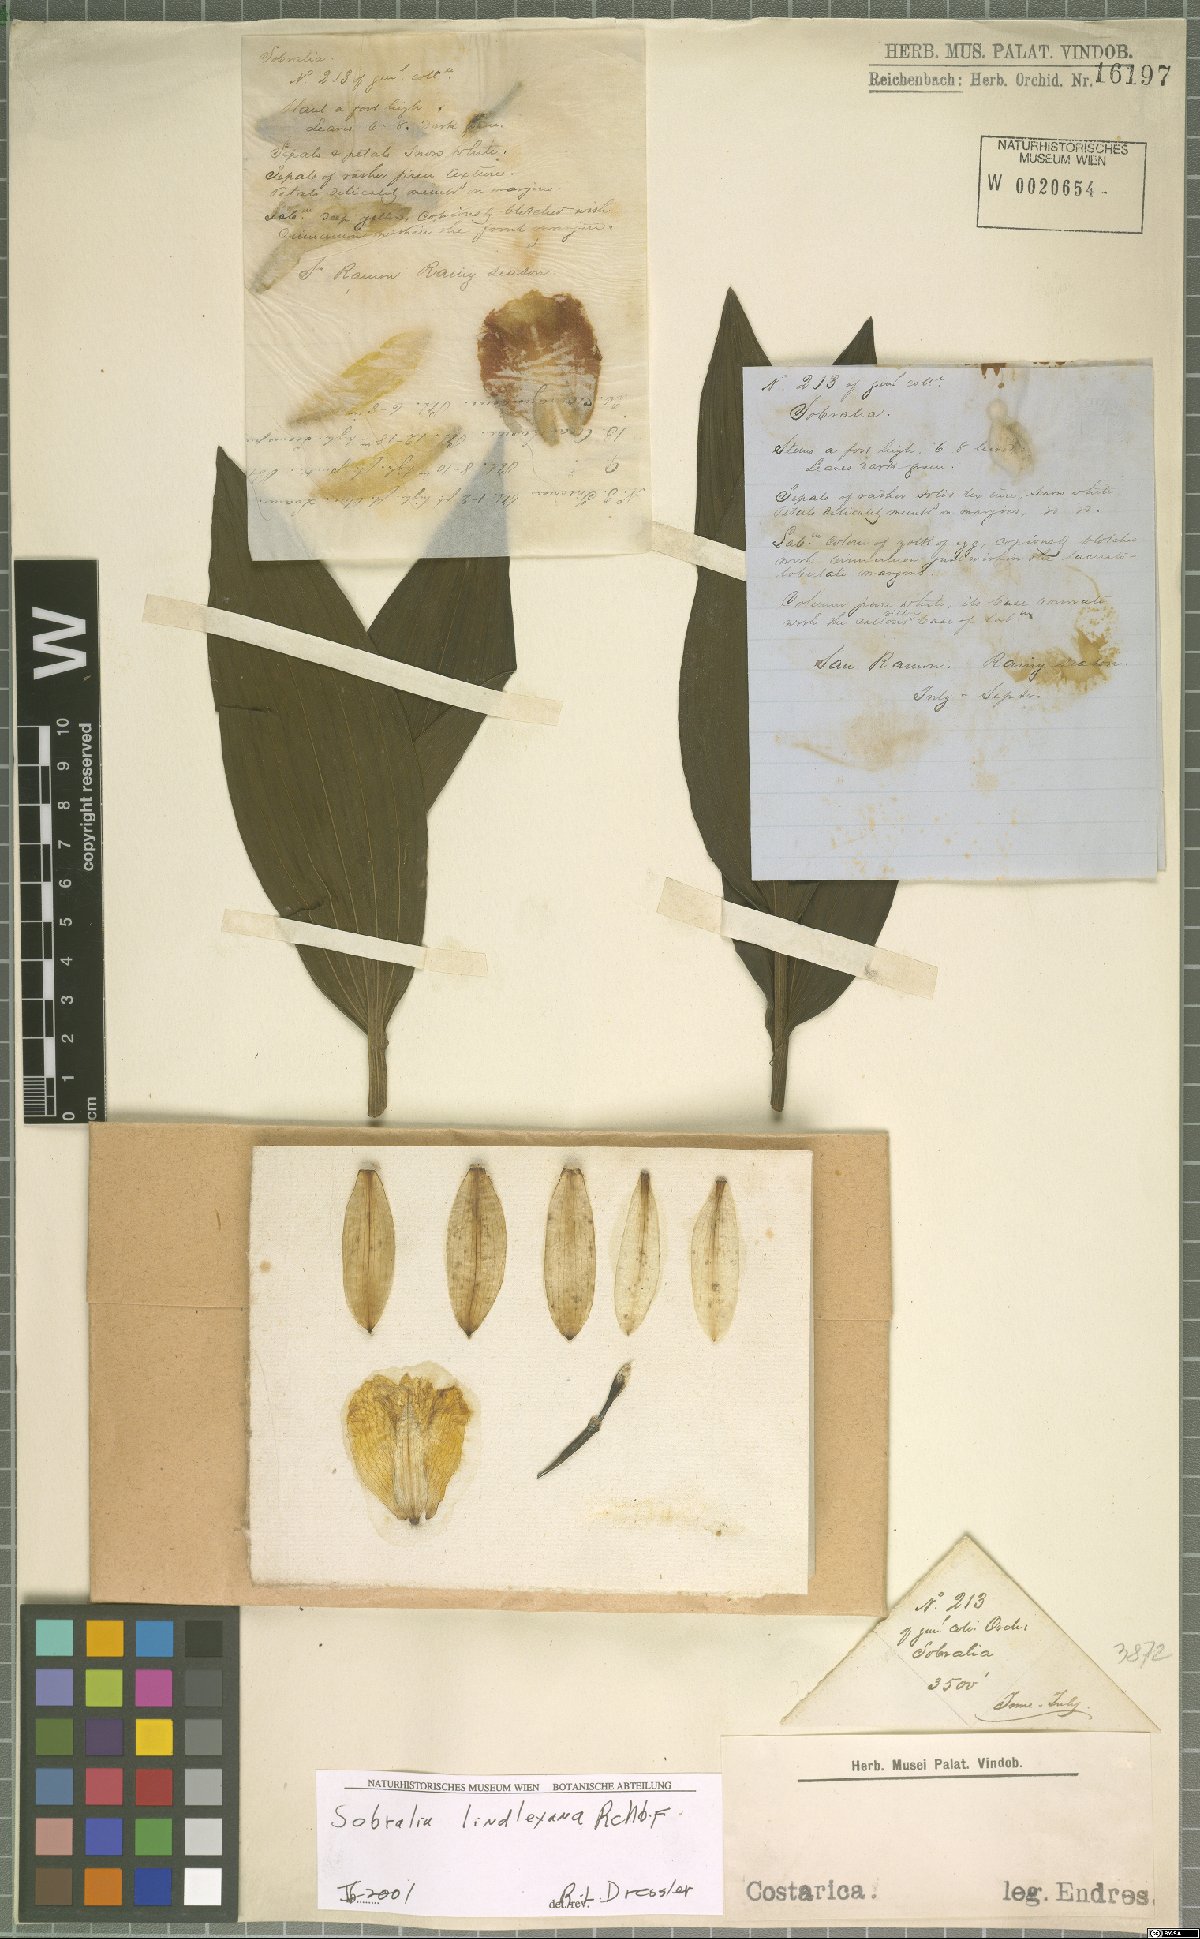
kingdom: Plantae
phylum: Tracheophyta
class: Liliopsida
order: Asparagales
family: Orchidaceae
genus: Sobralia
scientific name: Sobralia lindleyana
